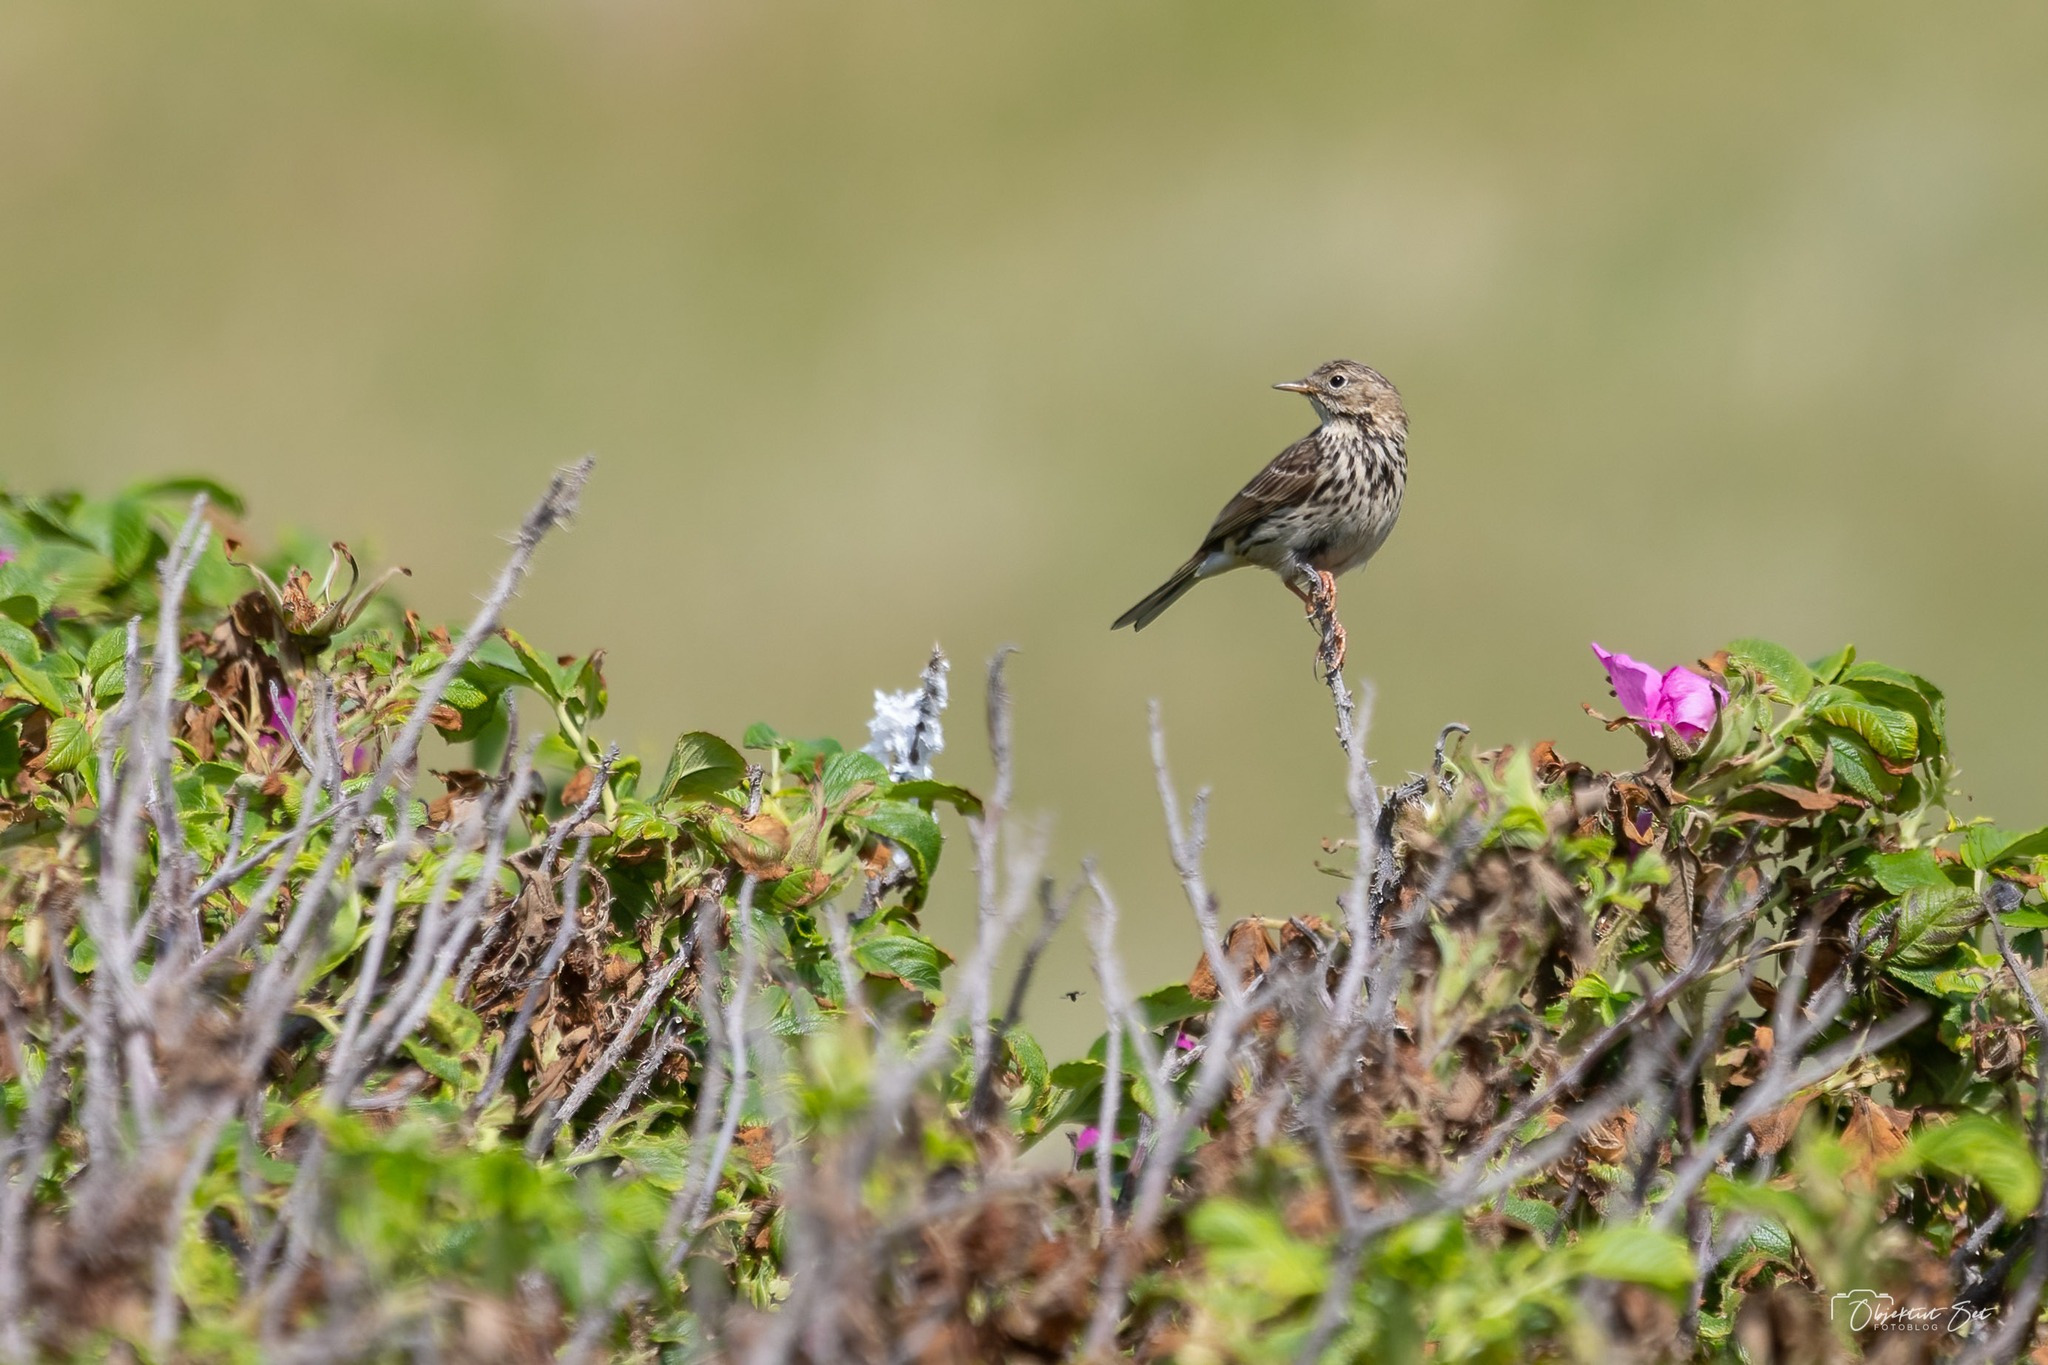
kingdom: Animalia
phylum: Chordata
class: Aves
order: Passeriformes
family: Motacillidae
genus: Anthus
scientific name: Anthus pratensis
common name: Engpiber
